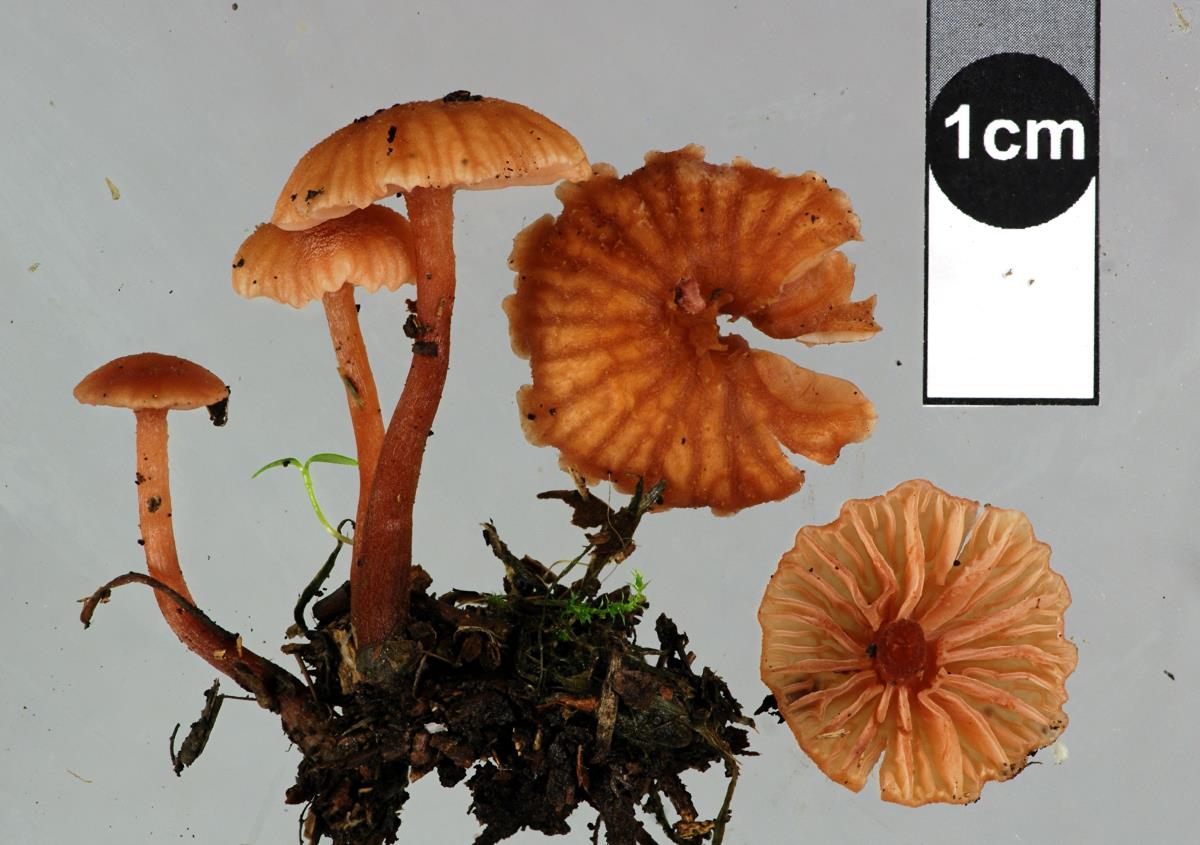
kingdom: Fungi
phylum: Basidiomycota
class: Agaricomycetes
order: Agaricales
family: Hydnangiaceae
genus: Laccaria
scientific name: Laccaria glabripes
